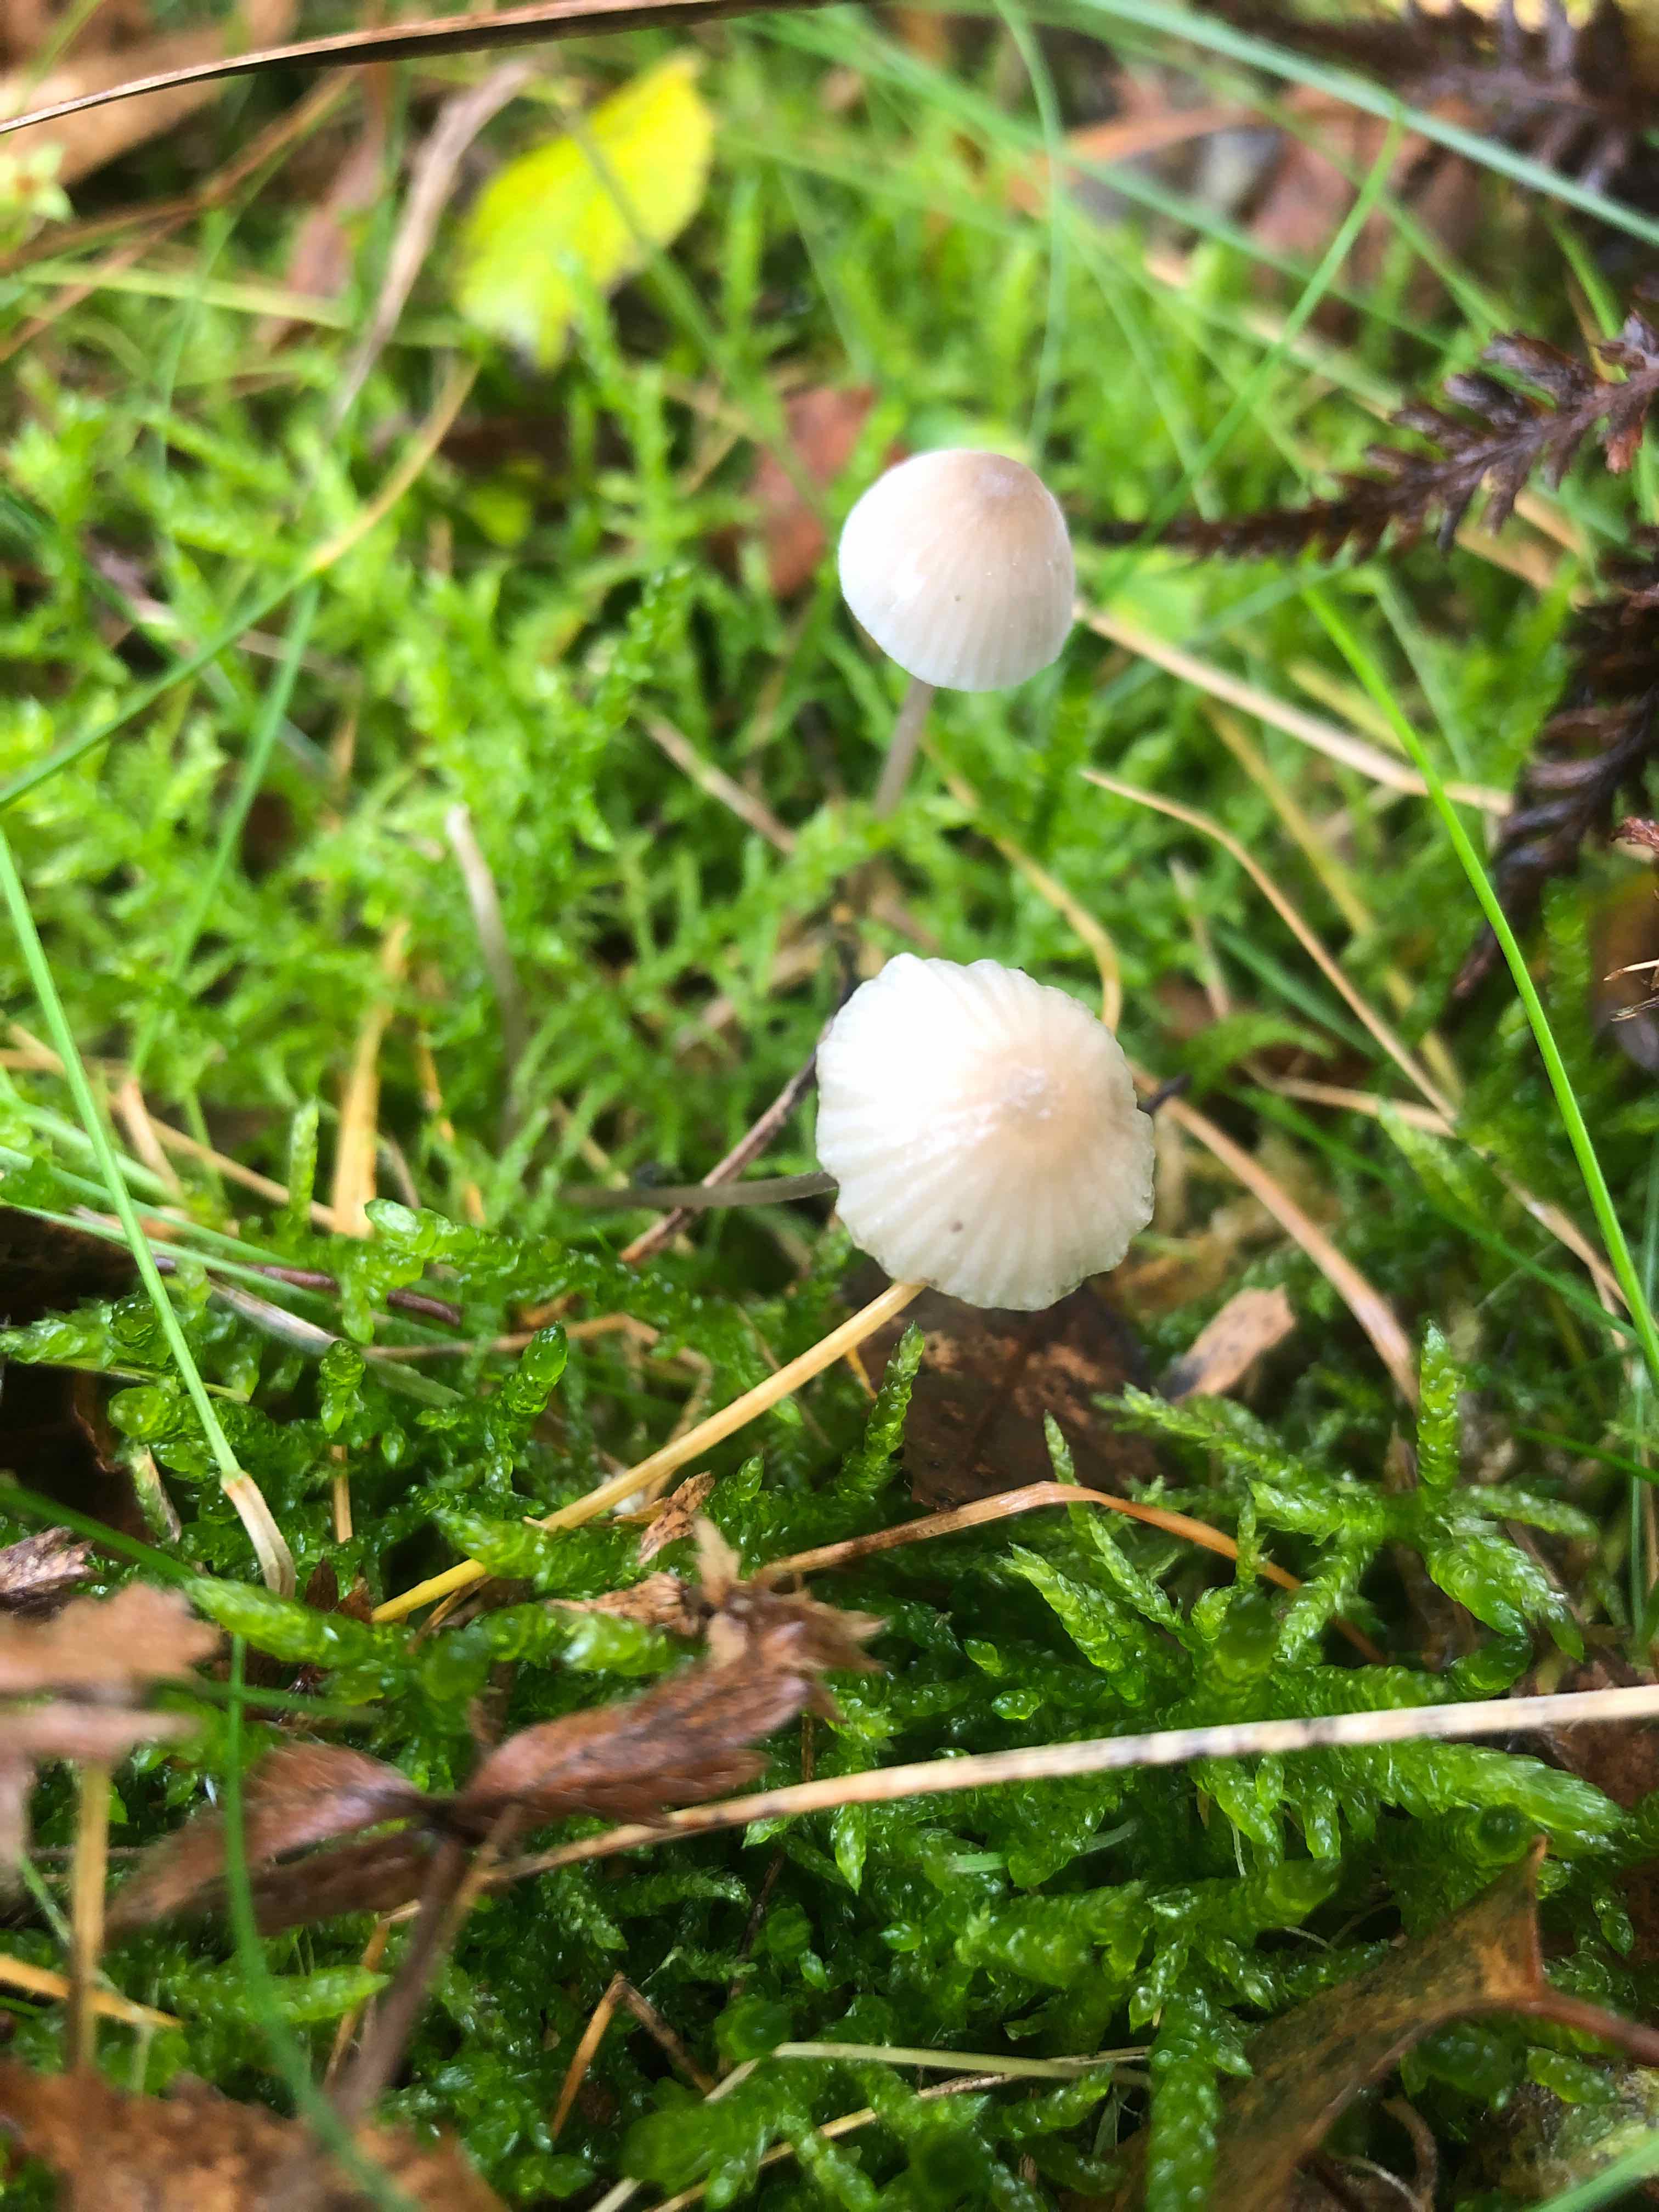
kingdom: Fungi
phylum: Basidiomycota
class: Agaricomycetes
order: Agaricales
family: Mycenaceae
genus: Mycena
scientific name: Mycena galopus
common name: hvidmælket huesvamp
